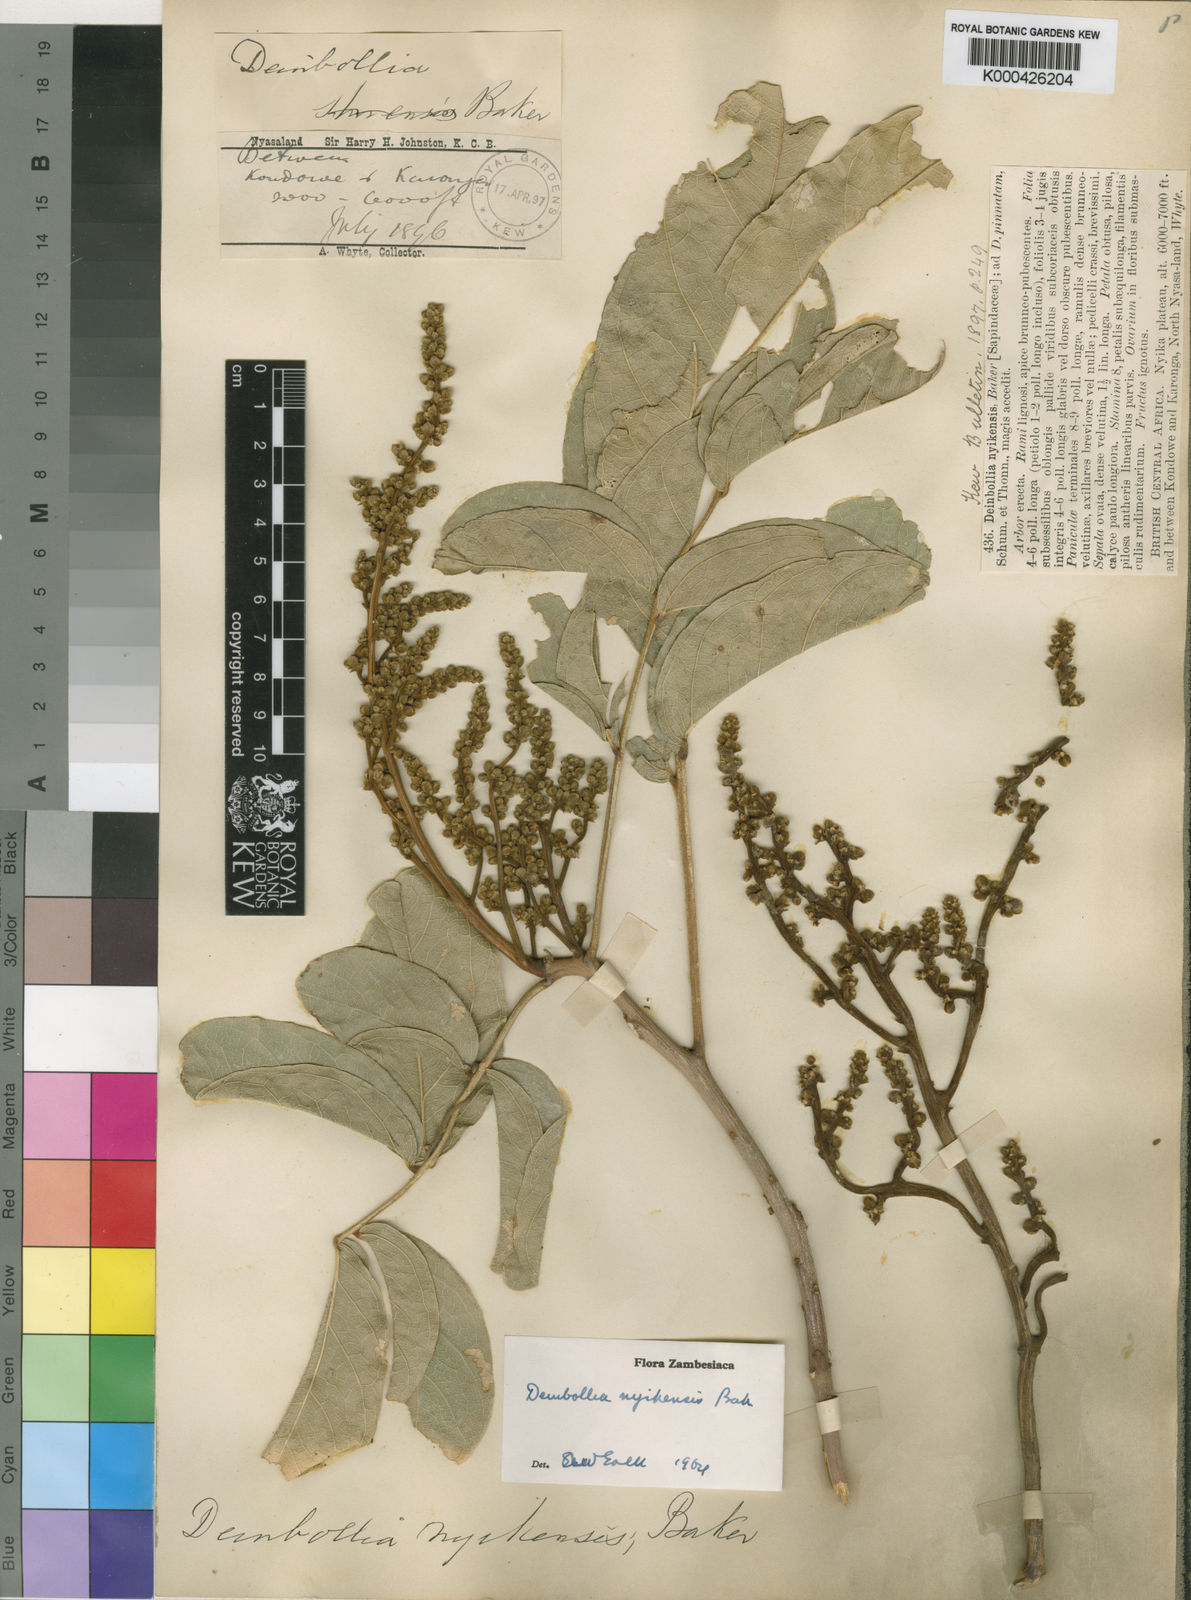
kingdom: Plantae
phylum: Tracheophyta
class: Magnoliopsida
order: Sapindales
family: Sapindaceae
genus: Deinbollia
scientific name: Deinbollia borbonica
